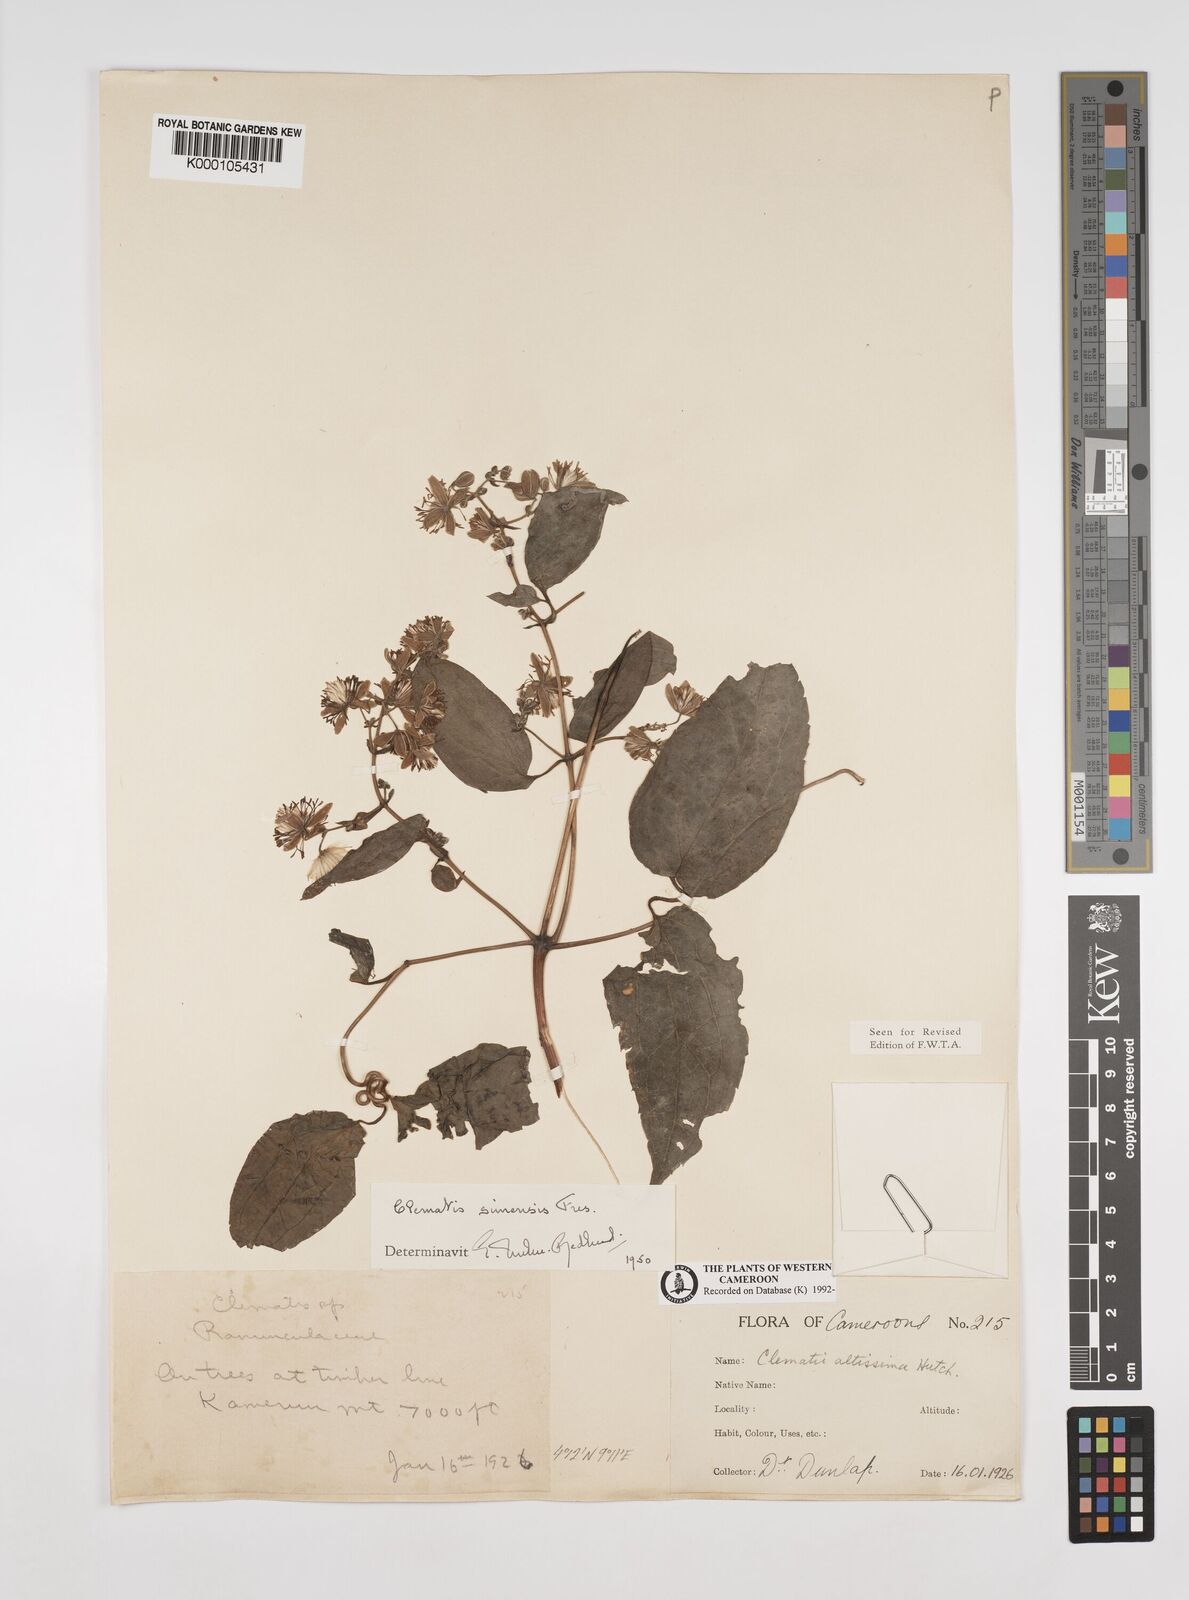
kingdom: Plantae
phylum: Tracheophyta
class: Magnoliopsida
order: Ranunculales
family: Ranunculaceae
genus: Clematis
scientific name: Clematis simensis
